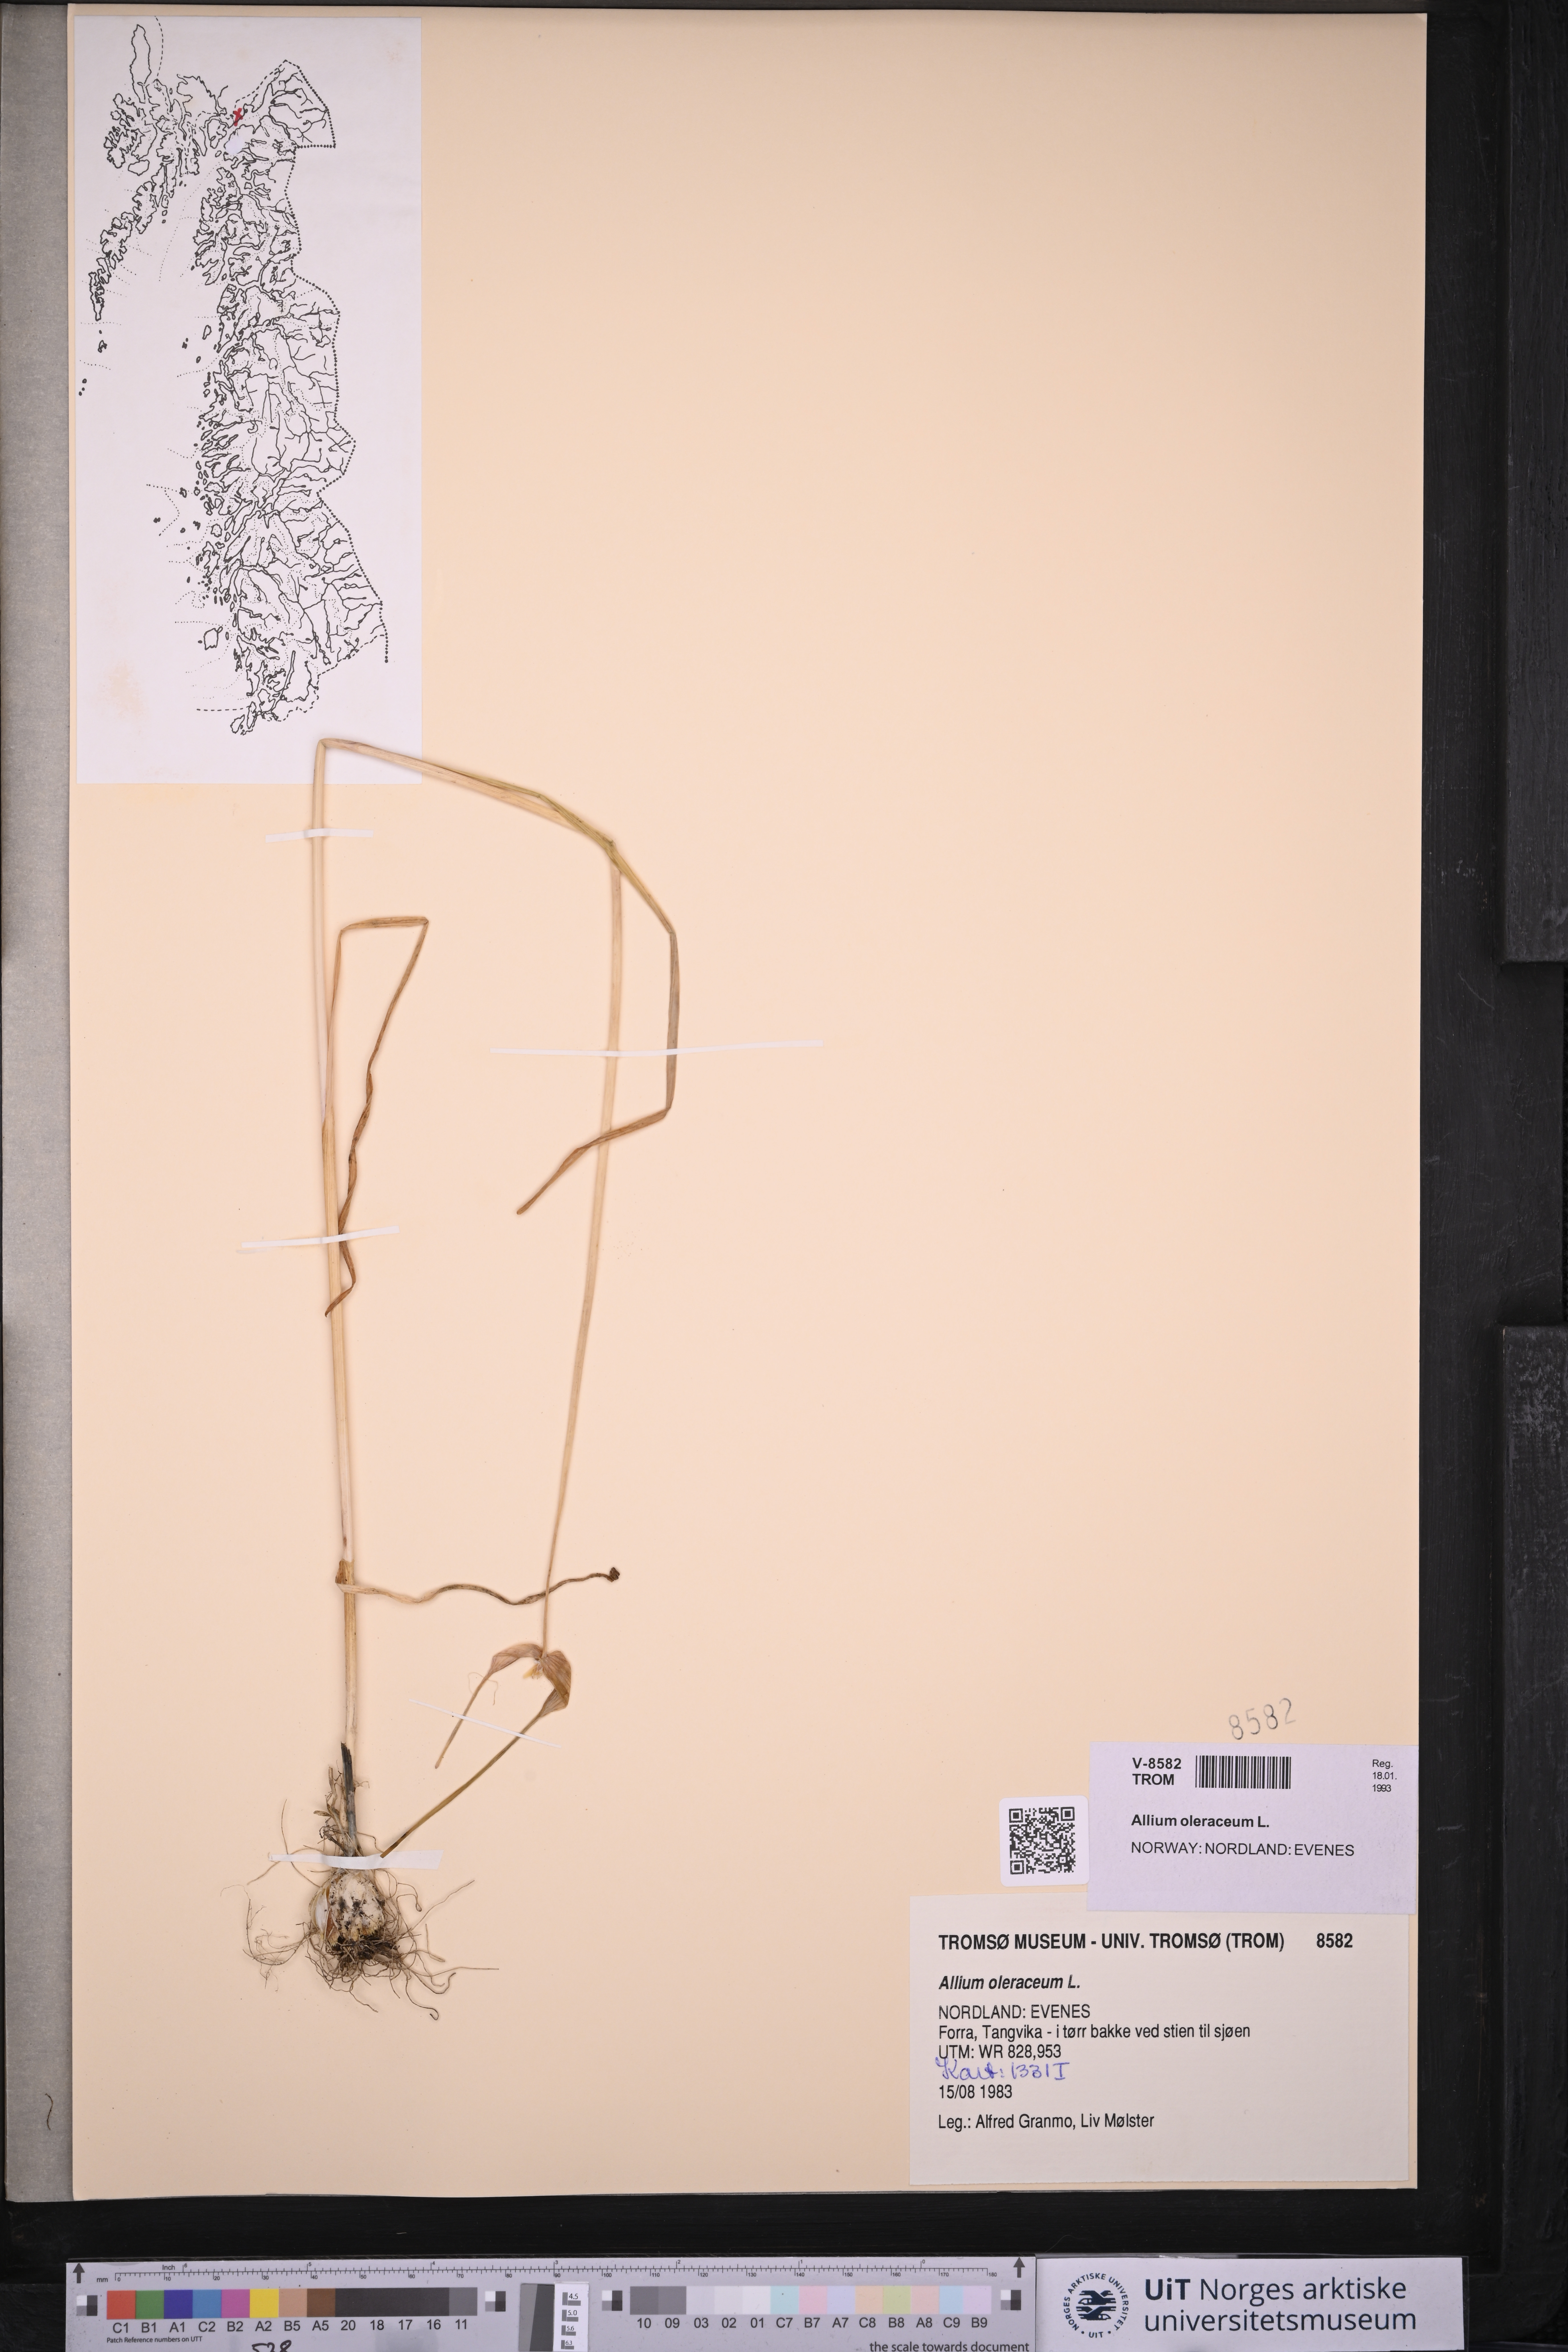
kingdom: Plantae
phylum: Tracheophyta
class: Liliopsida
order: Asparagales
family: Amaryllidaceae
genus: Allium
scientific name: Allium oleraceum
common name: Field garlic
